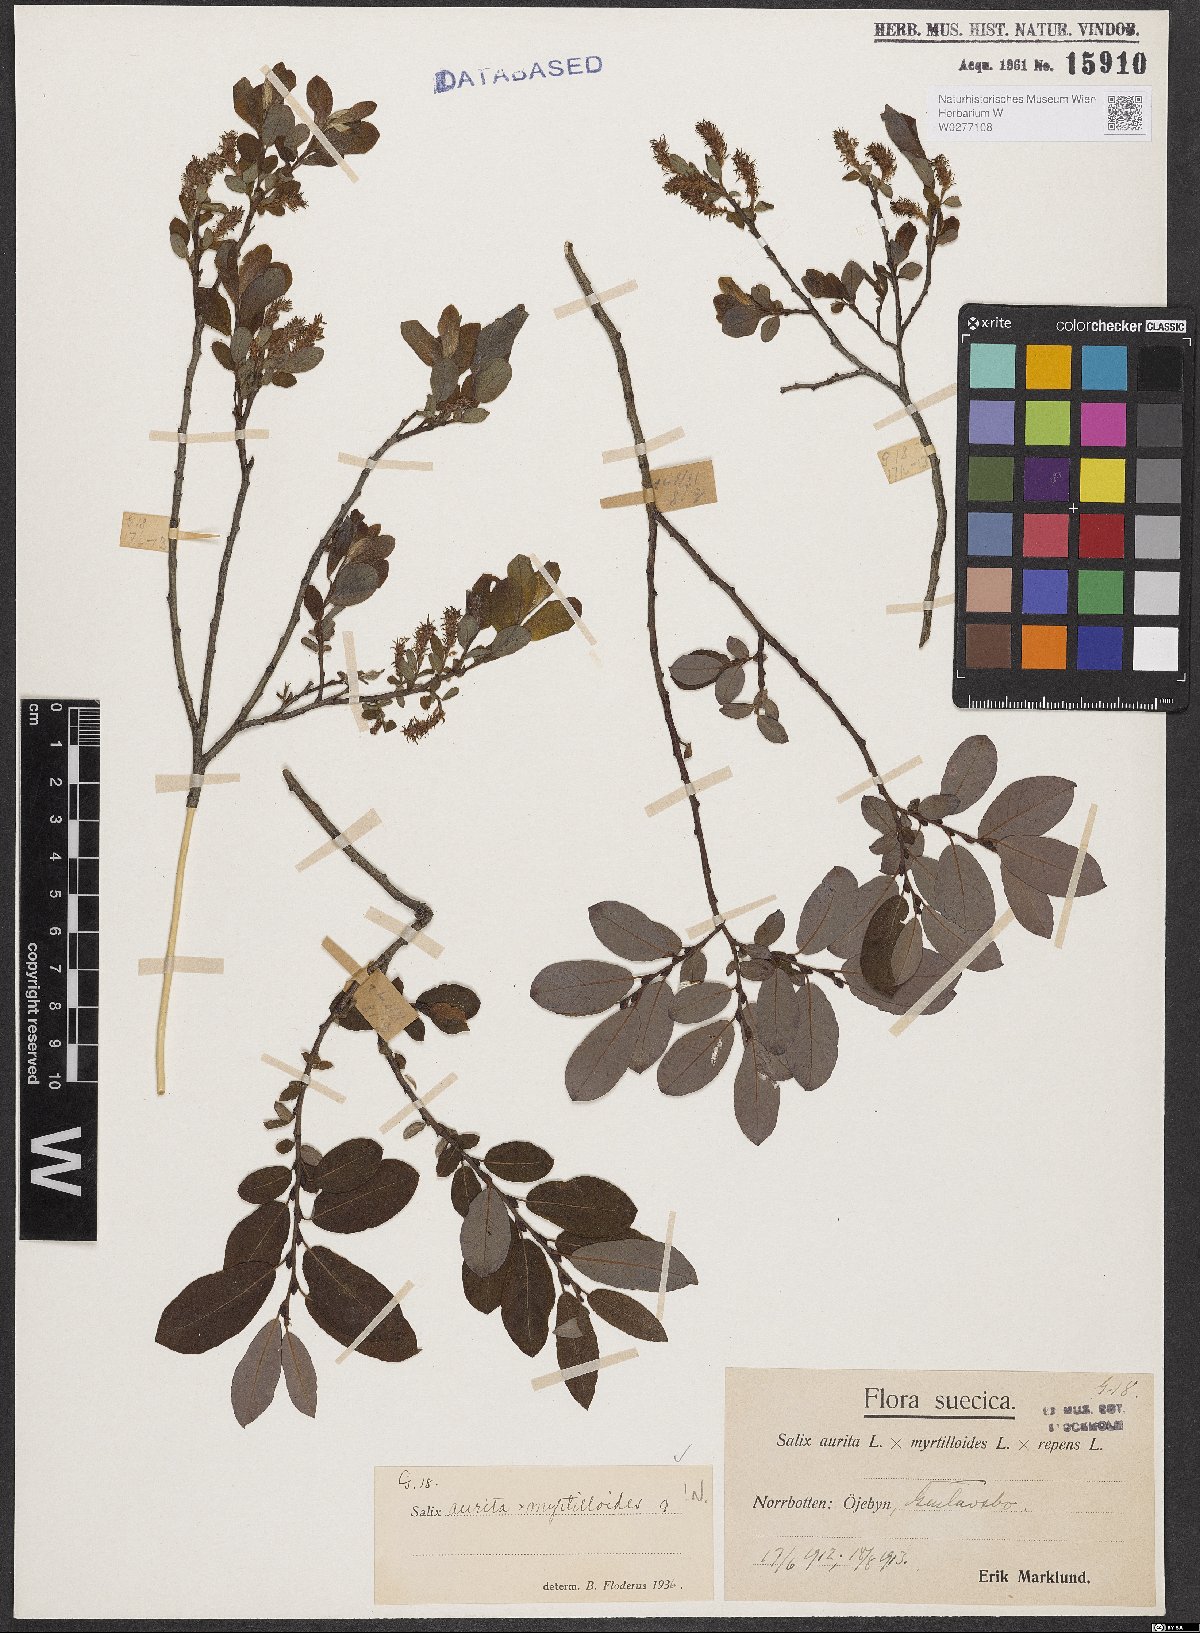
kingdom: Plantae
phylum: Tracheophyta
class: Magnoliopsida
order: Malpighiales
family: Salicaceae
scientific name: Salicaceae
